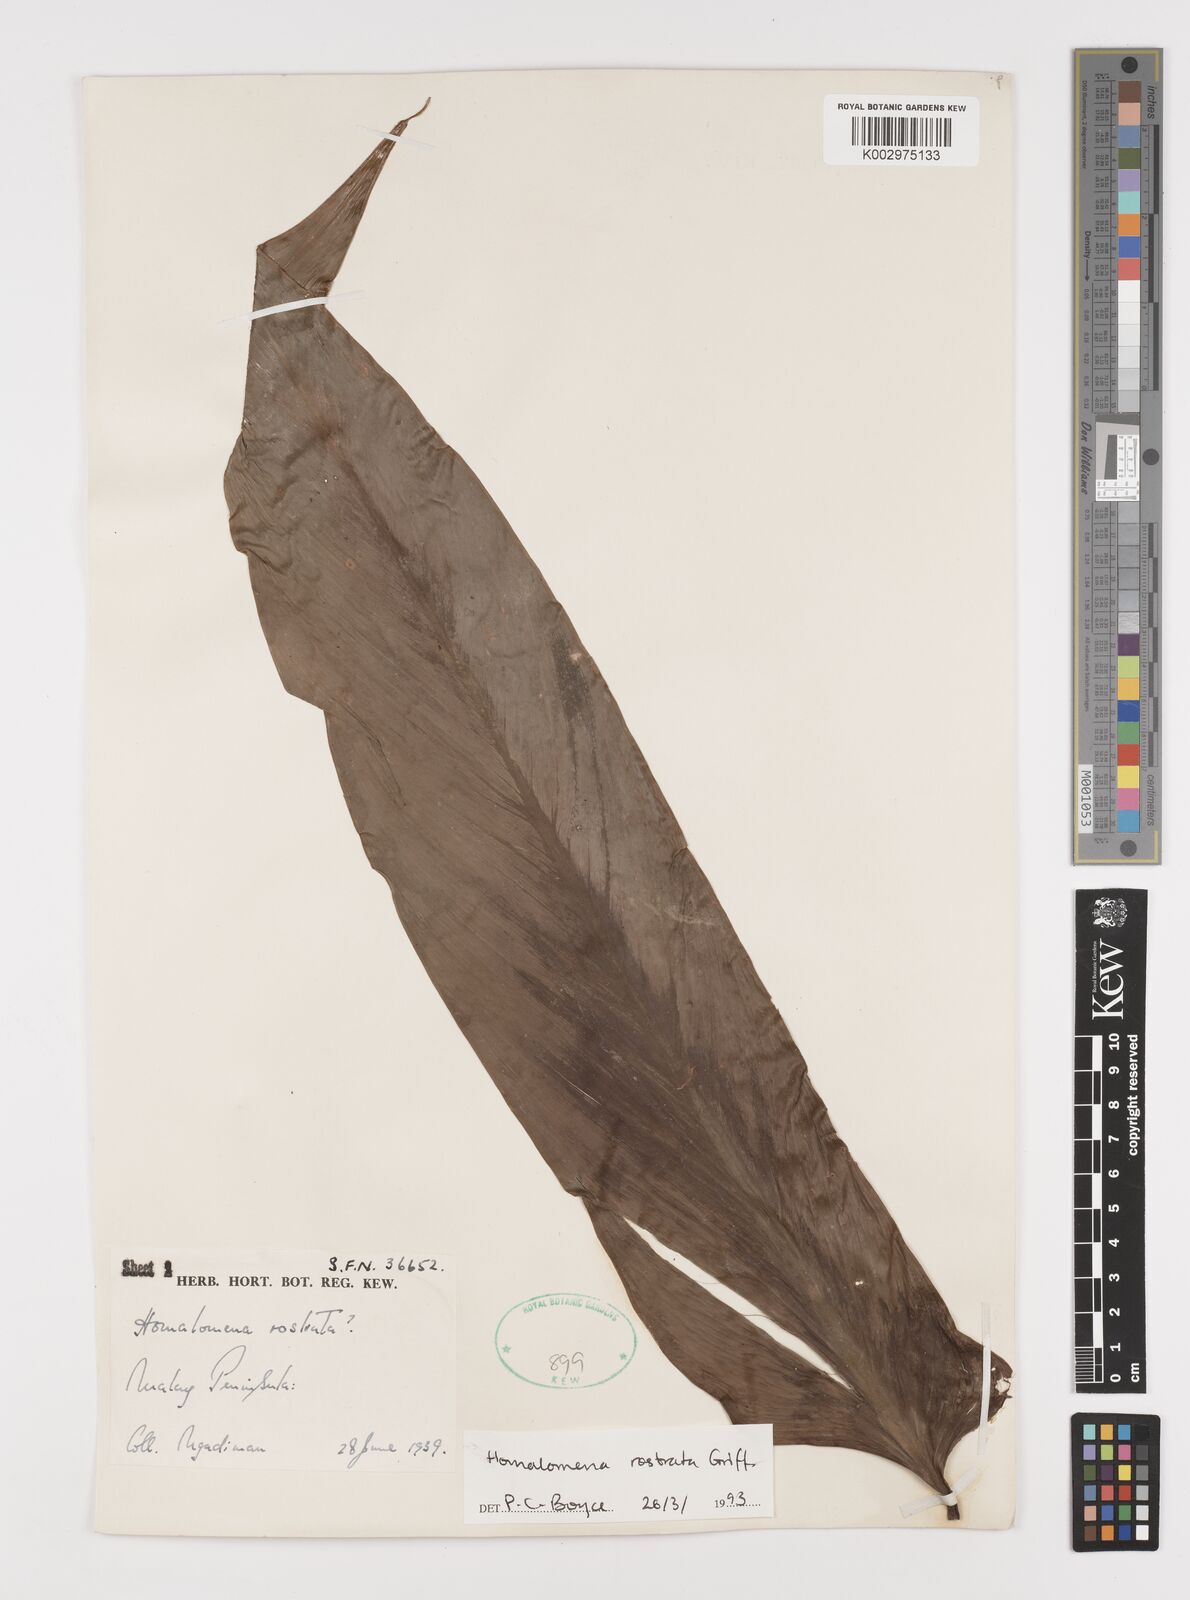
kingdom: Plantae
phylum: Tracheophyta
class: Liliopsida
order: Alismatales
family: Araceae
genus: Homalomena
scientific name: Homalomena rostrata
